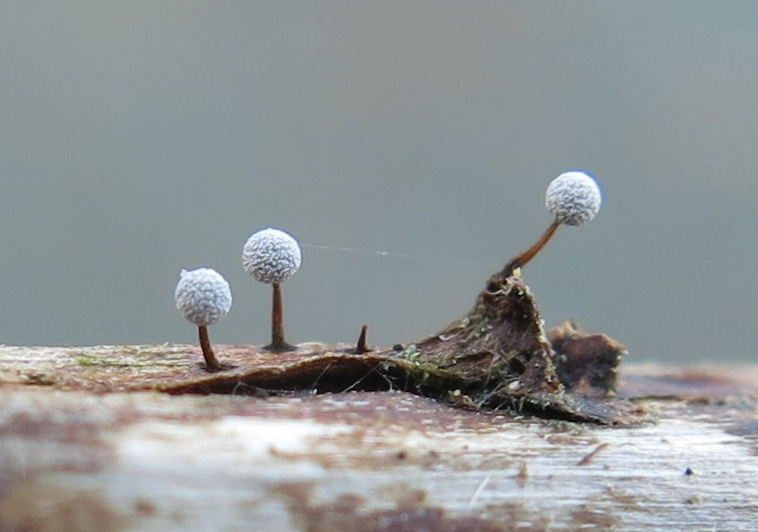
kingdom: Protozoa
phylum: Mycetozoa
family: Didymiidae
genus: Didymium
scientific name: Didymium
